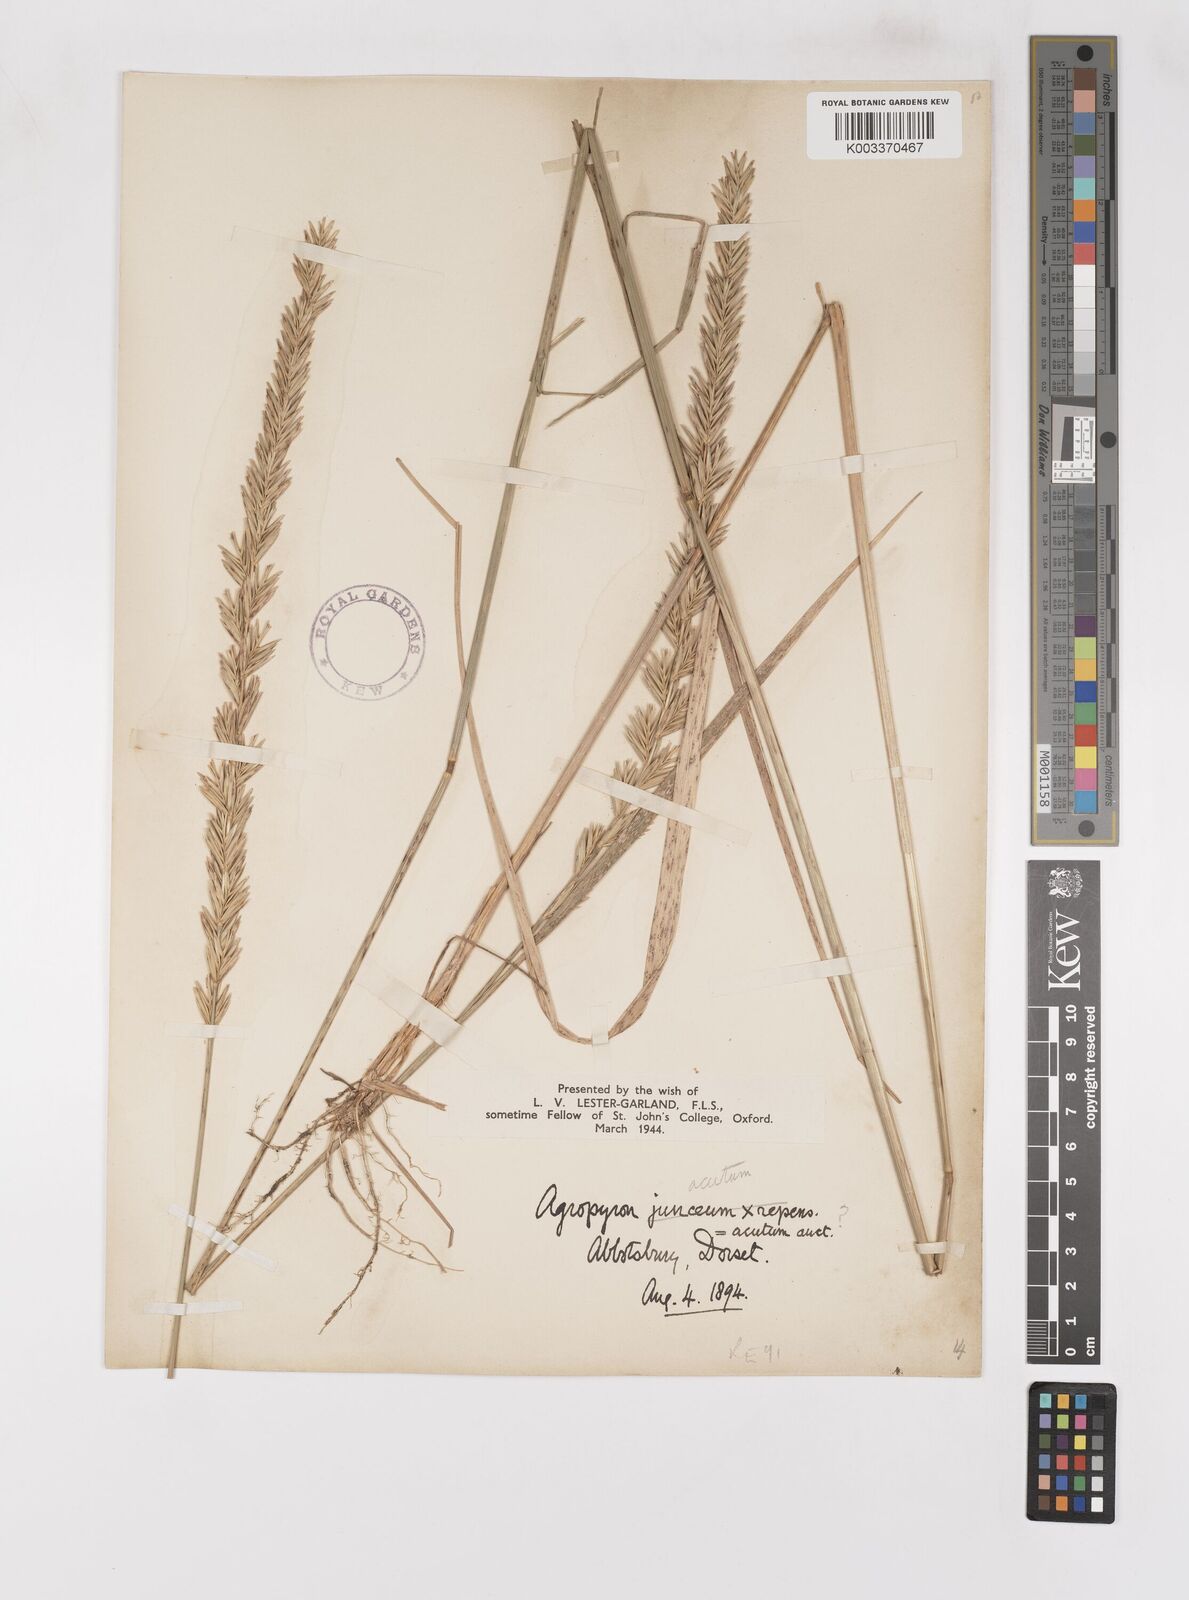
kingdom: Plantae
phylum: Tracheophyta
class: Liliopsida
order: Poales
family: Poaceae
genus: Thinoelymus
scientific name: Thinoelymus obtusiusculus
